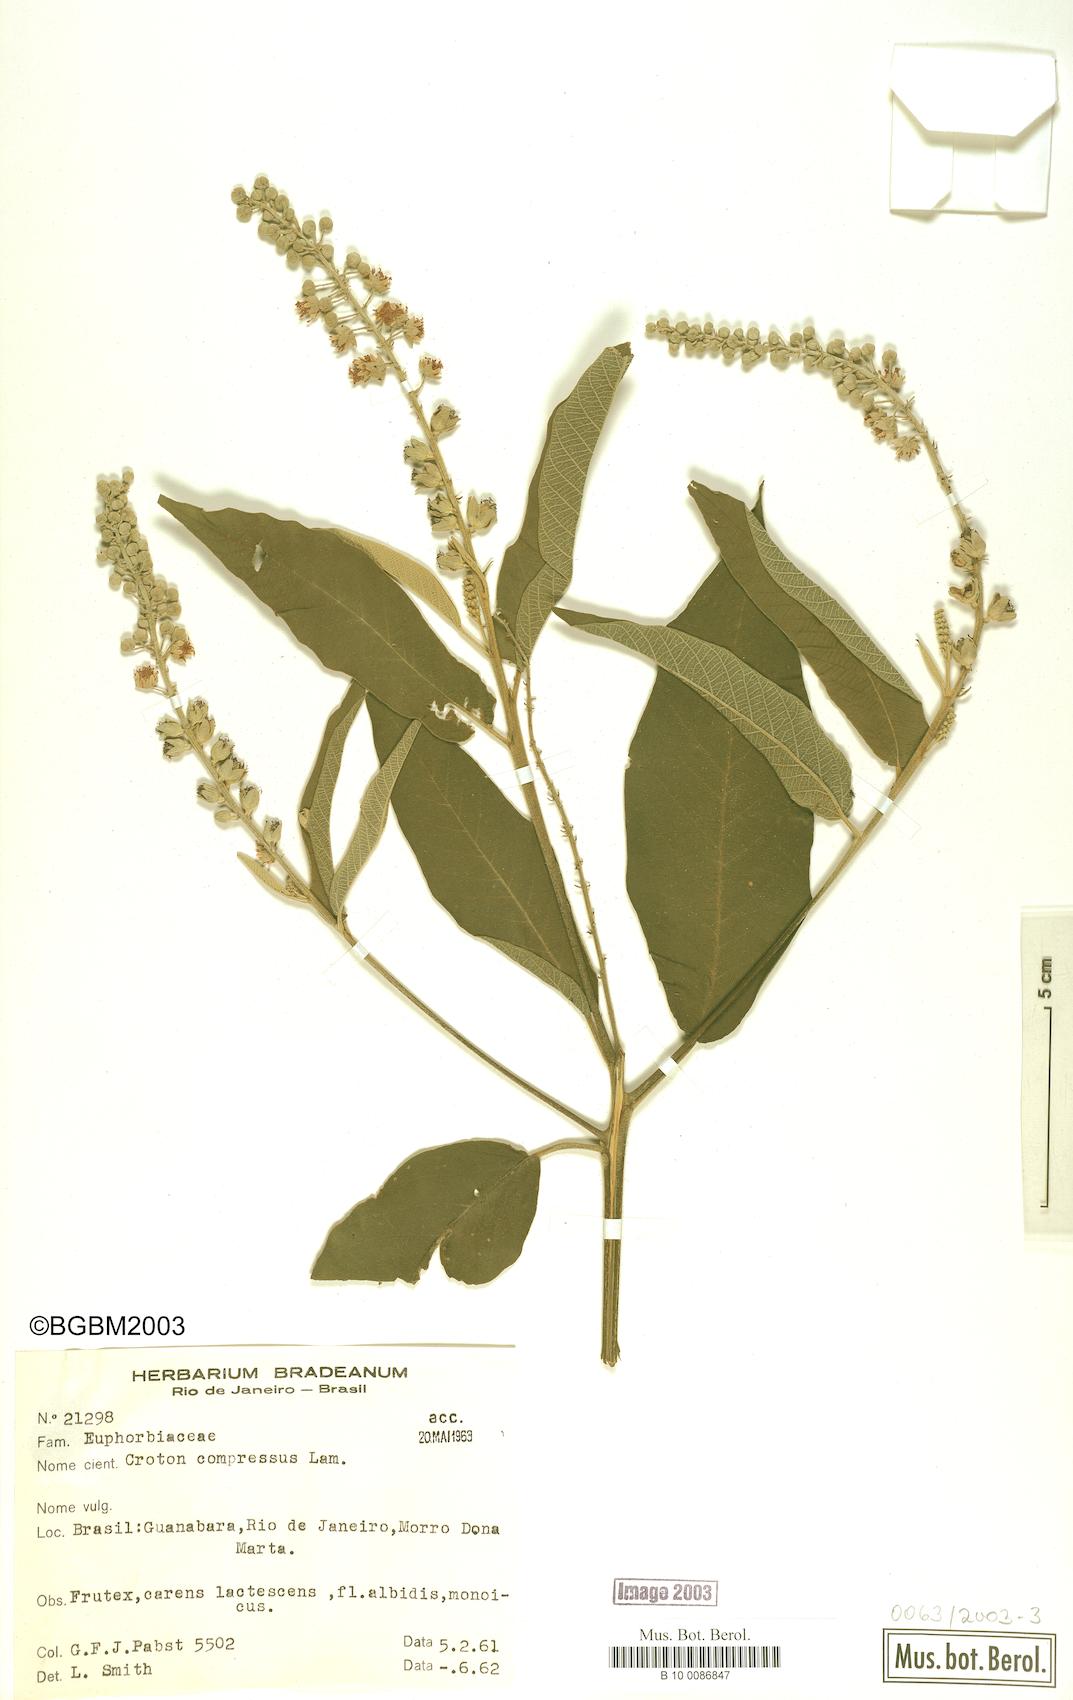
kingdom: Plantae
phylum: Tracheophyta
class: Magnoliopsida
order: Malpighiales
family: Euphorbiaceae
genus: Croton
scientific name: Croton compressus
